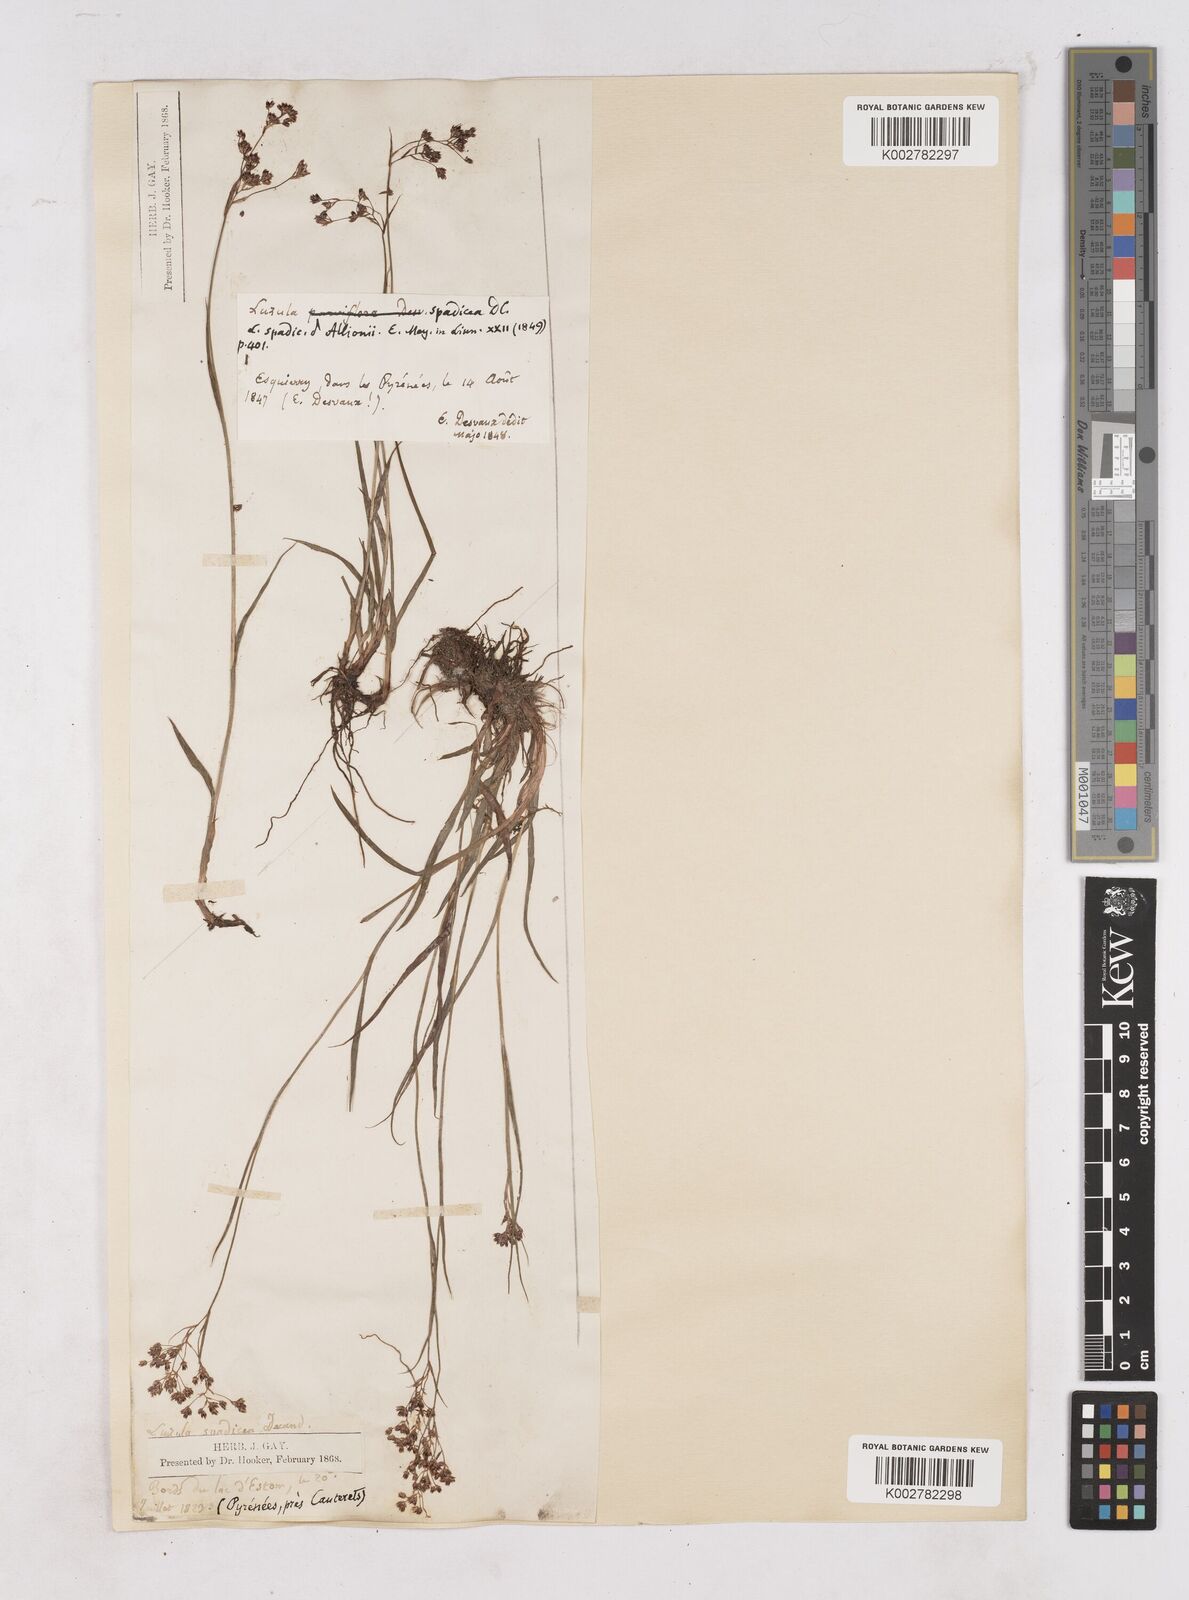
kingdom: Plantae
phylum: Tracheophyta
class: Liliopsida
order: Poales
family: Juncaceae
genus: Luzula
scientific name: Luzula alpinopilosa
